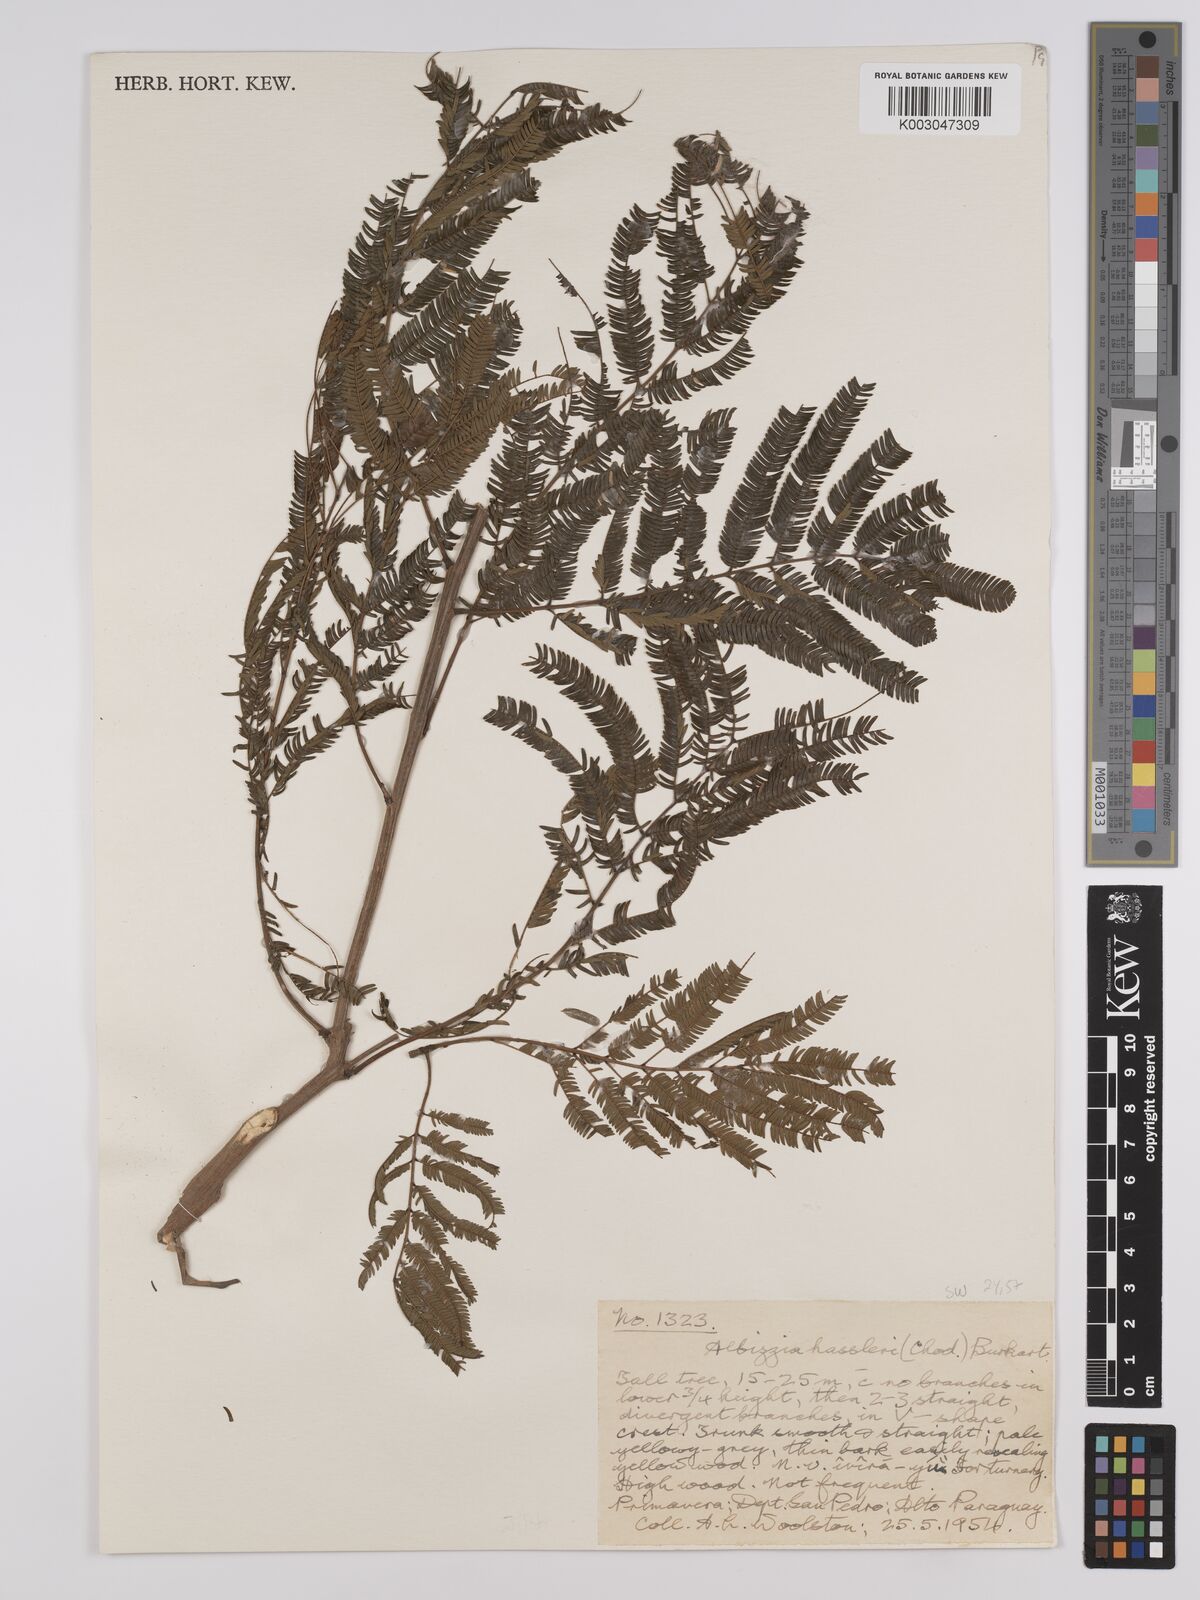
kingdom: Plantae
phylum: Tracheophyta
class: Magnoliopsida
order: Fabales
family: Fabaceae
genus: Albizia
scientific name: Albizia niopoides
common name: Silk tree
